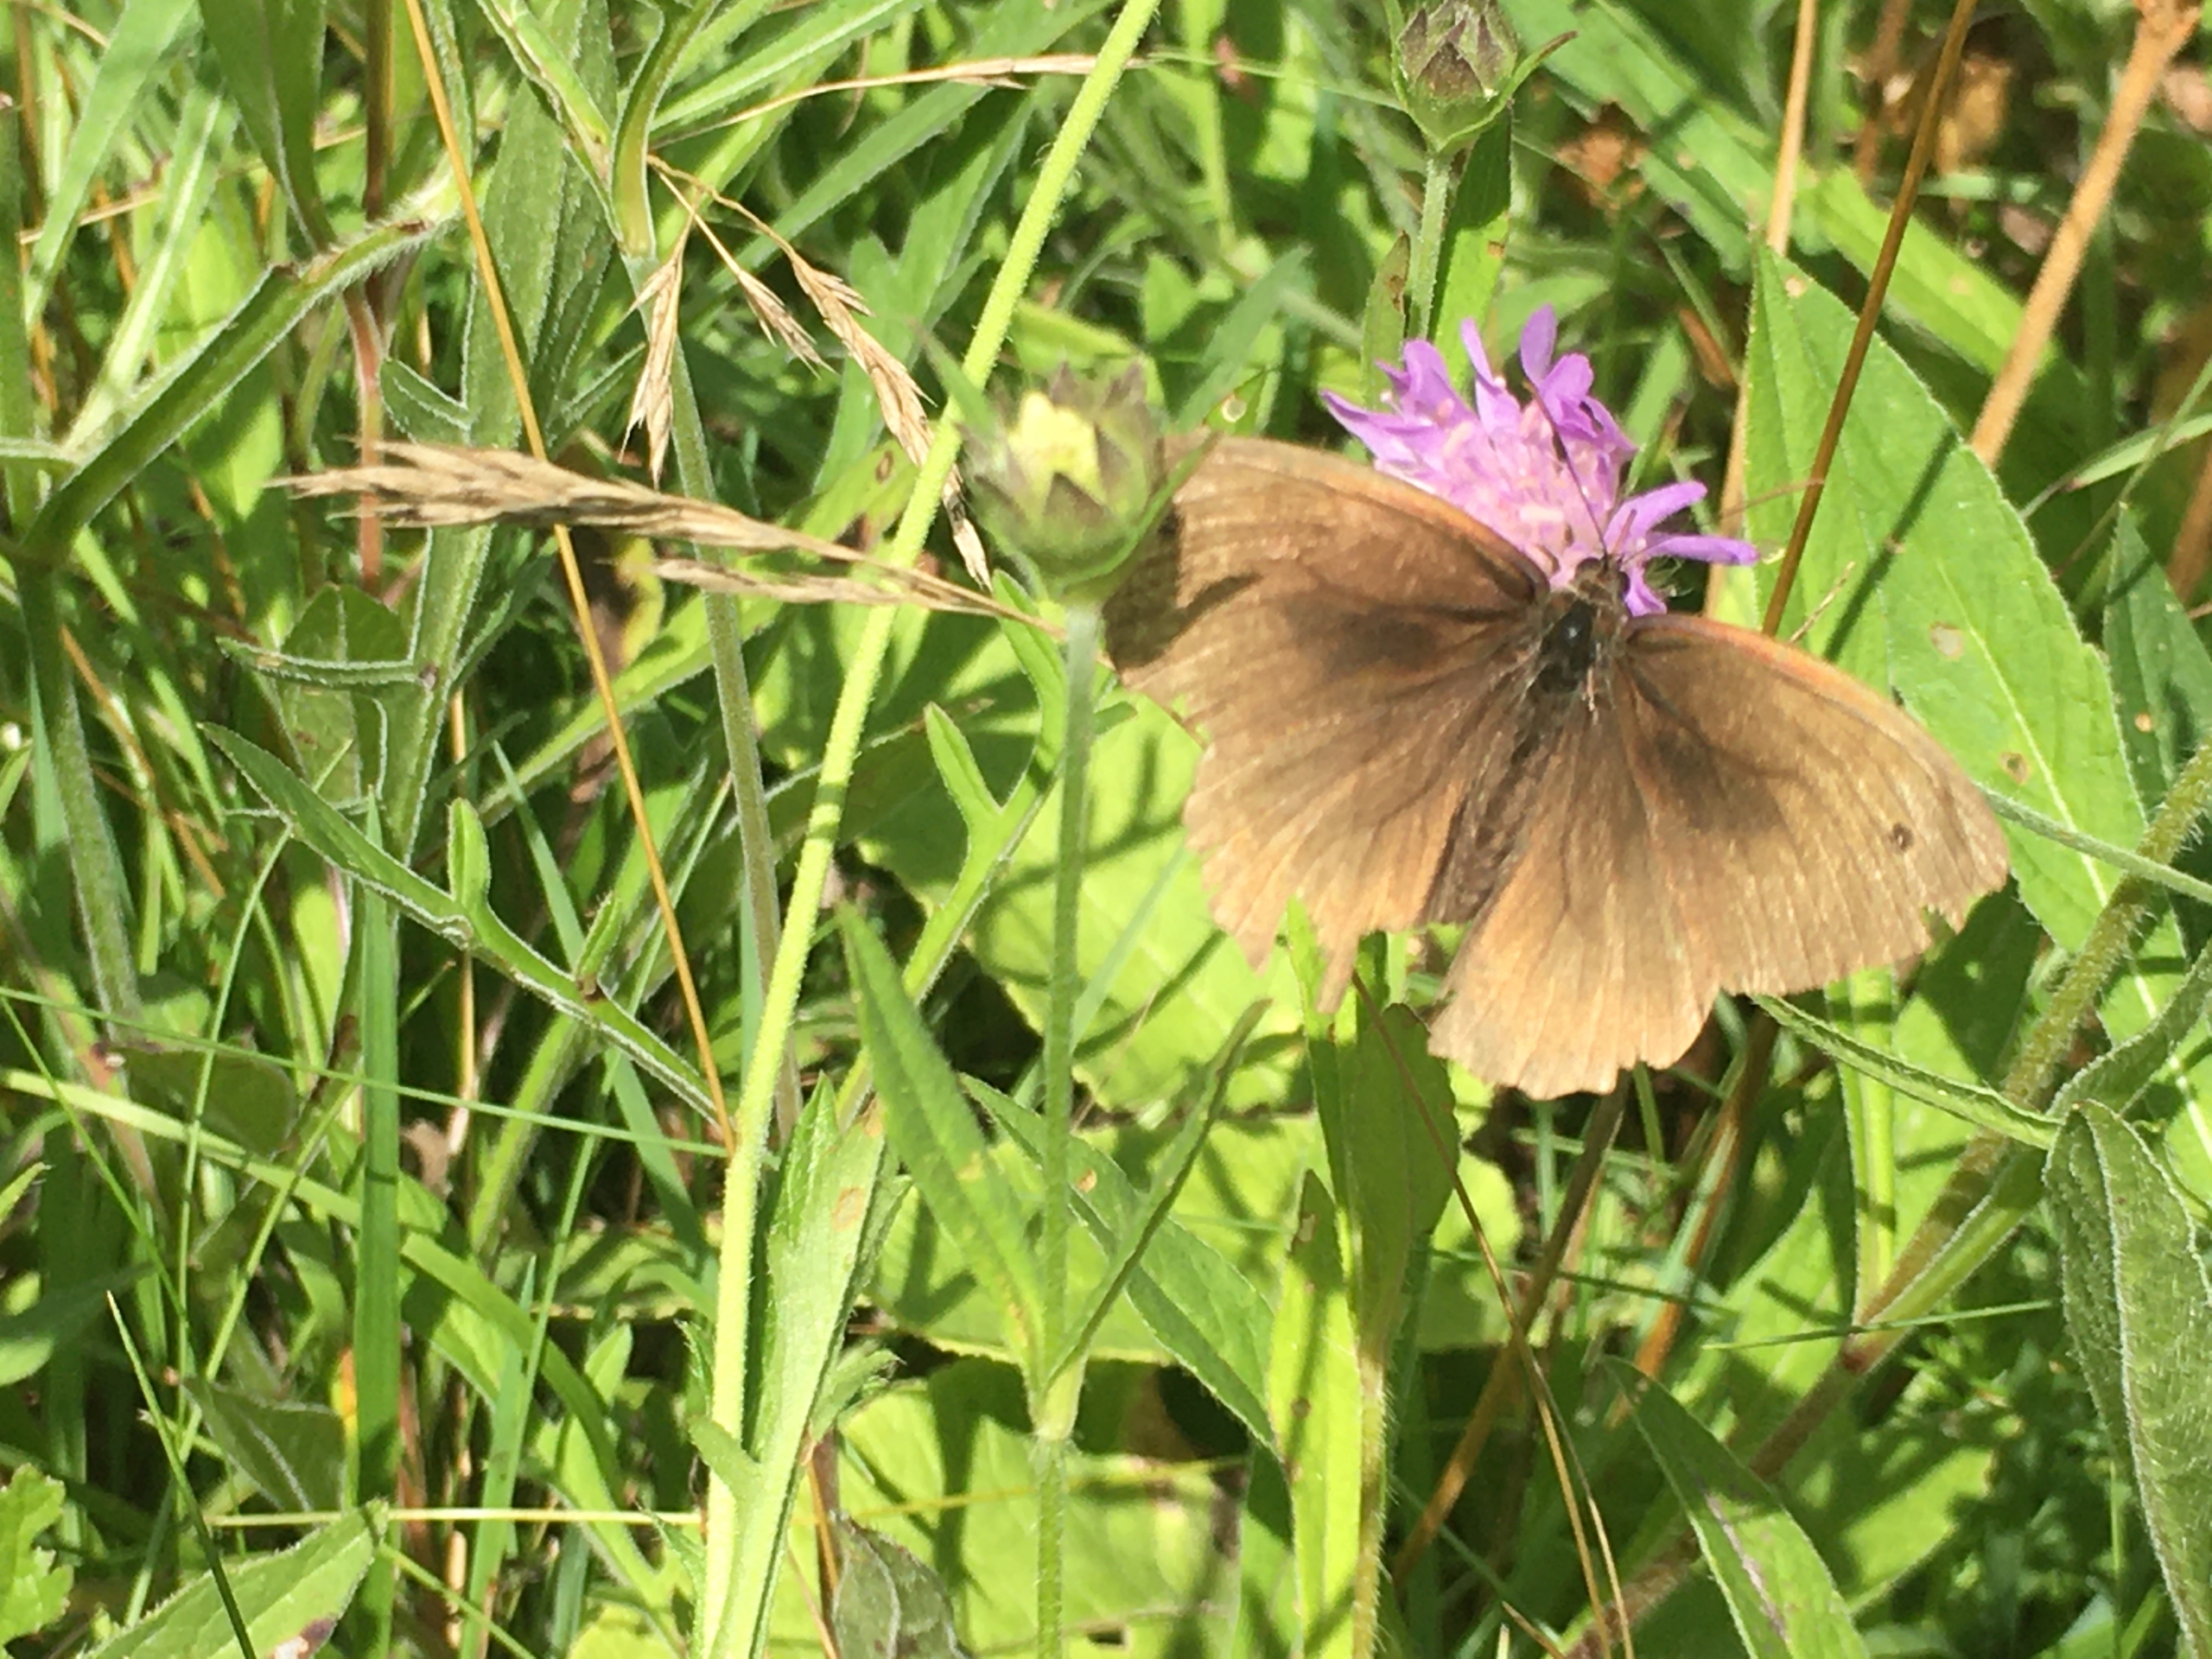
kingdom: Animalia
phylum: Arthropoda
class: Insecta
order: Lepidoptera
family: Nymphalidae
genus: Aphantopus
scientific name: Aphantopus hyperantus
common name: Engrandøje
